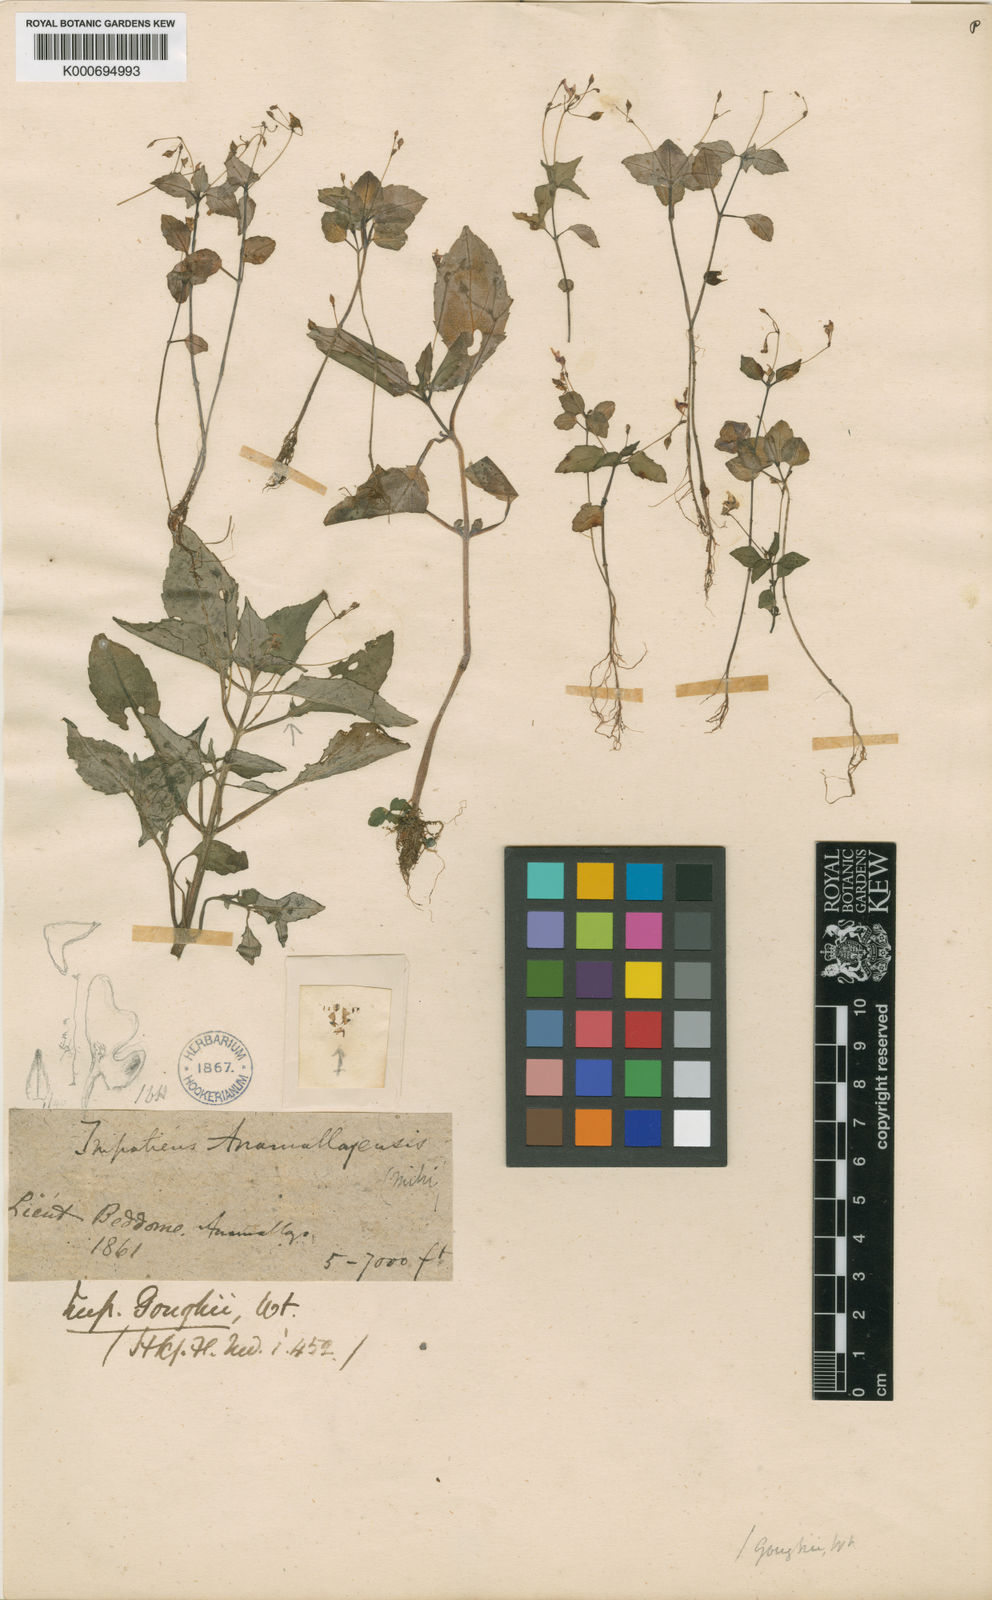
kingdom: Plantae
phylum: Tracheophyta
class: Magnoliopsida
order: Ericales
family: Balsaminaceae
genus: Impatiens
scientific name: Impatiens goughii
